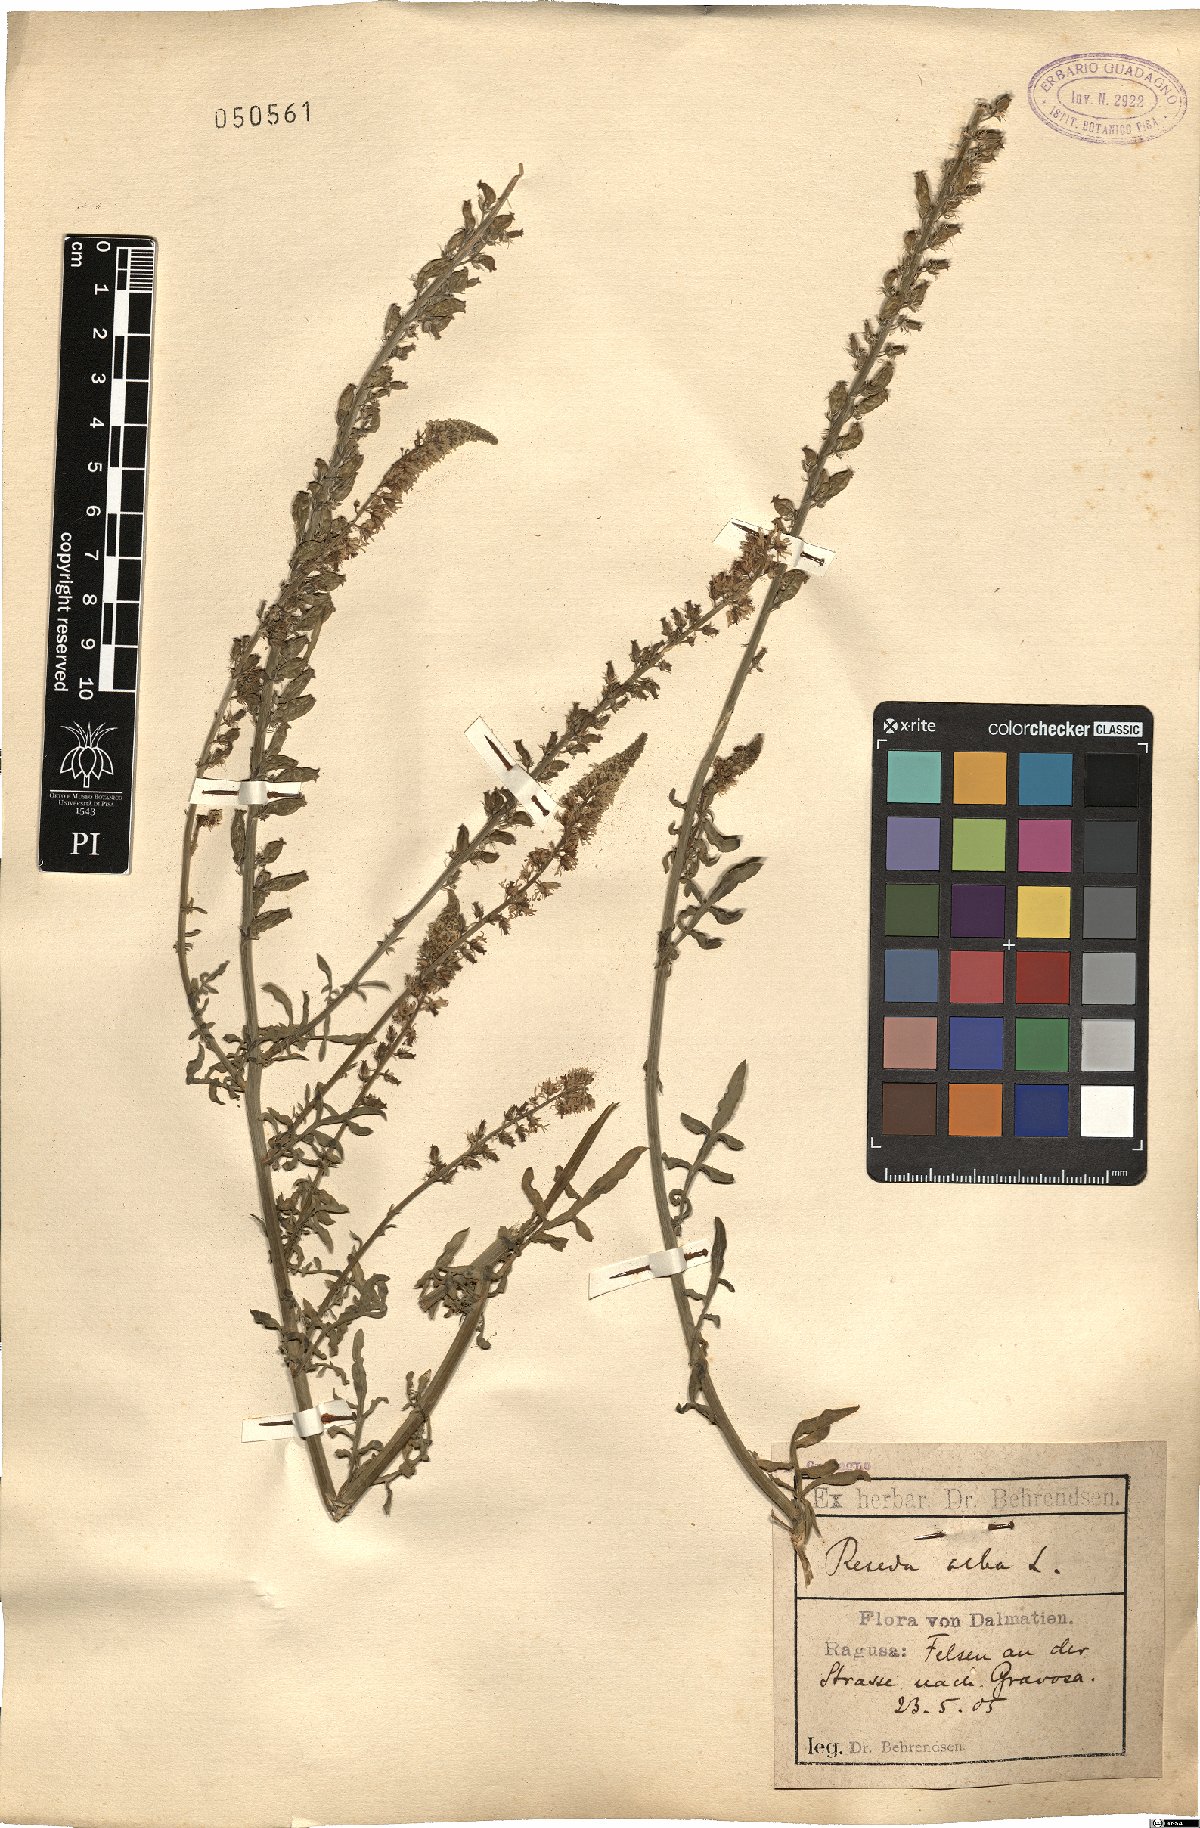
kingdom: Plantae
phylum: Tracheophyta
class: Magnoliopsida
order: Brassicales
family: Resedaceae
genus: Reseda
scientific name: Reseda alba
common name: White mignonette
